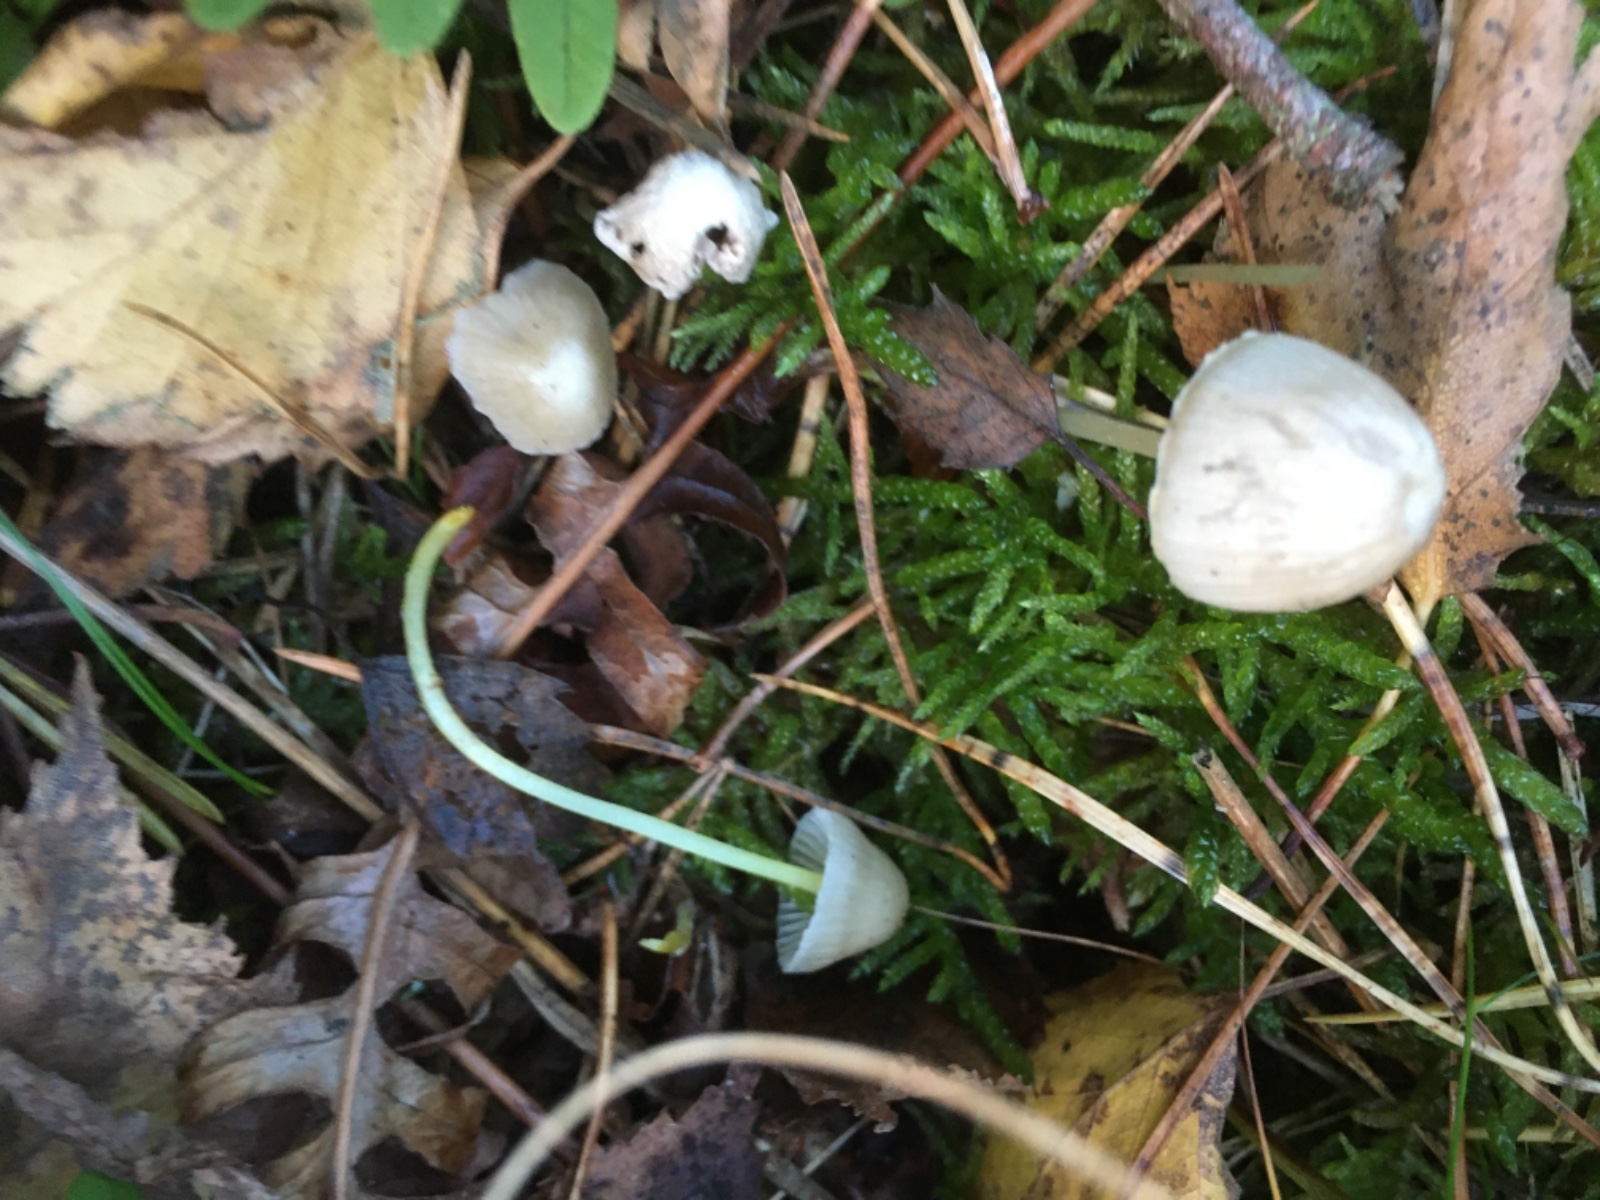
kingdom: Fungi
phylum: Basidiomycota
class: Agaricomycetes
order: Agaricales
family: Mycenaceae
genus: Mycena
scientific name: Mycena epipterygia
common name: gulstokket huesvamp
